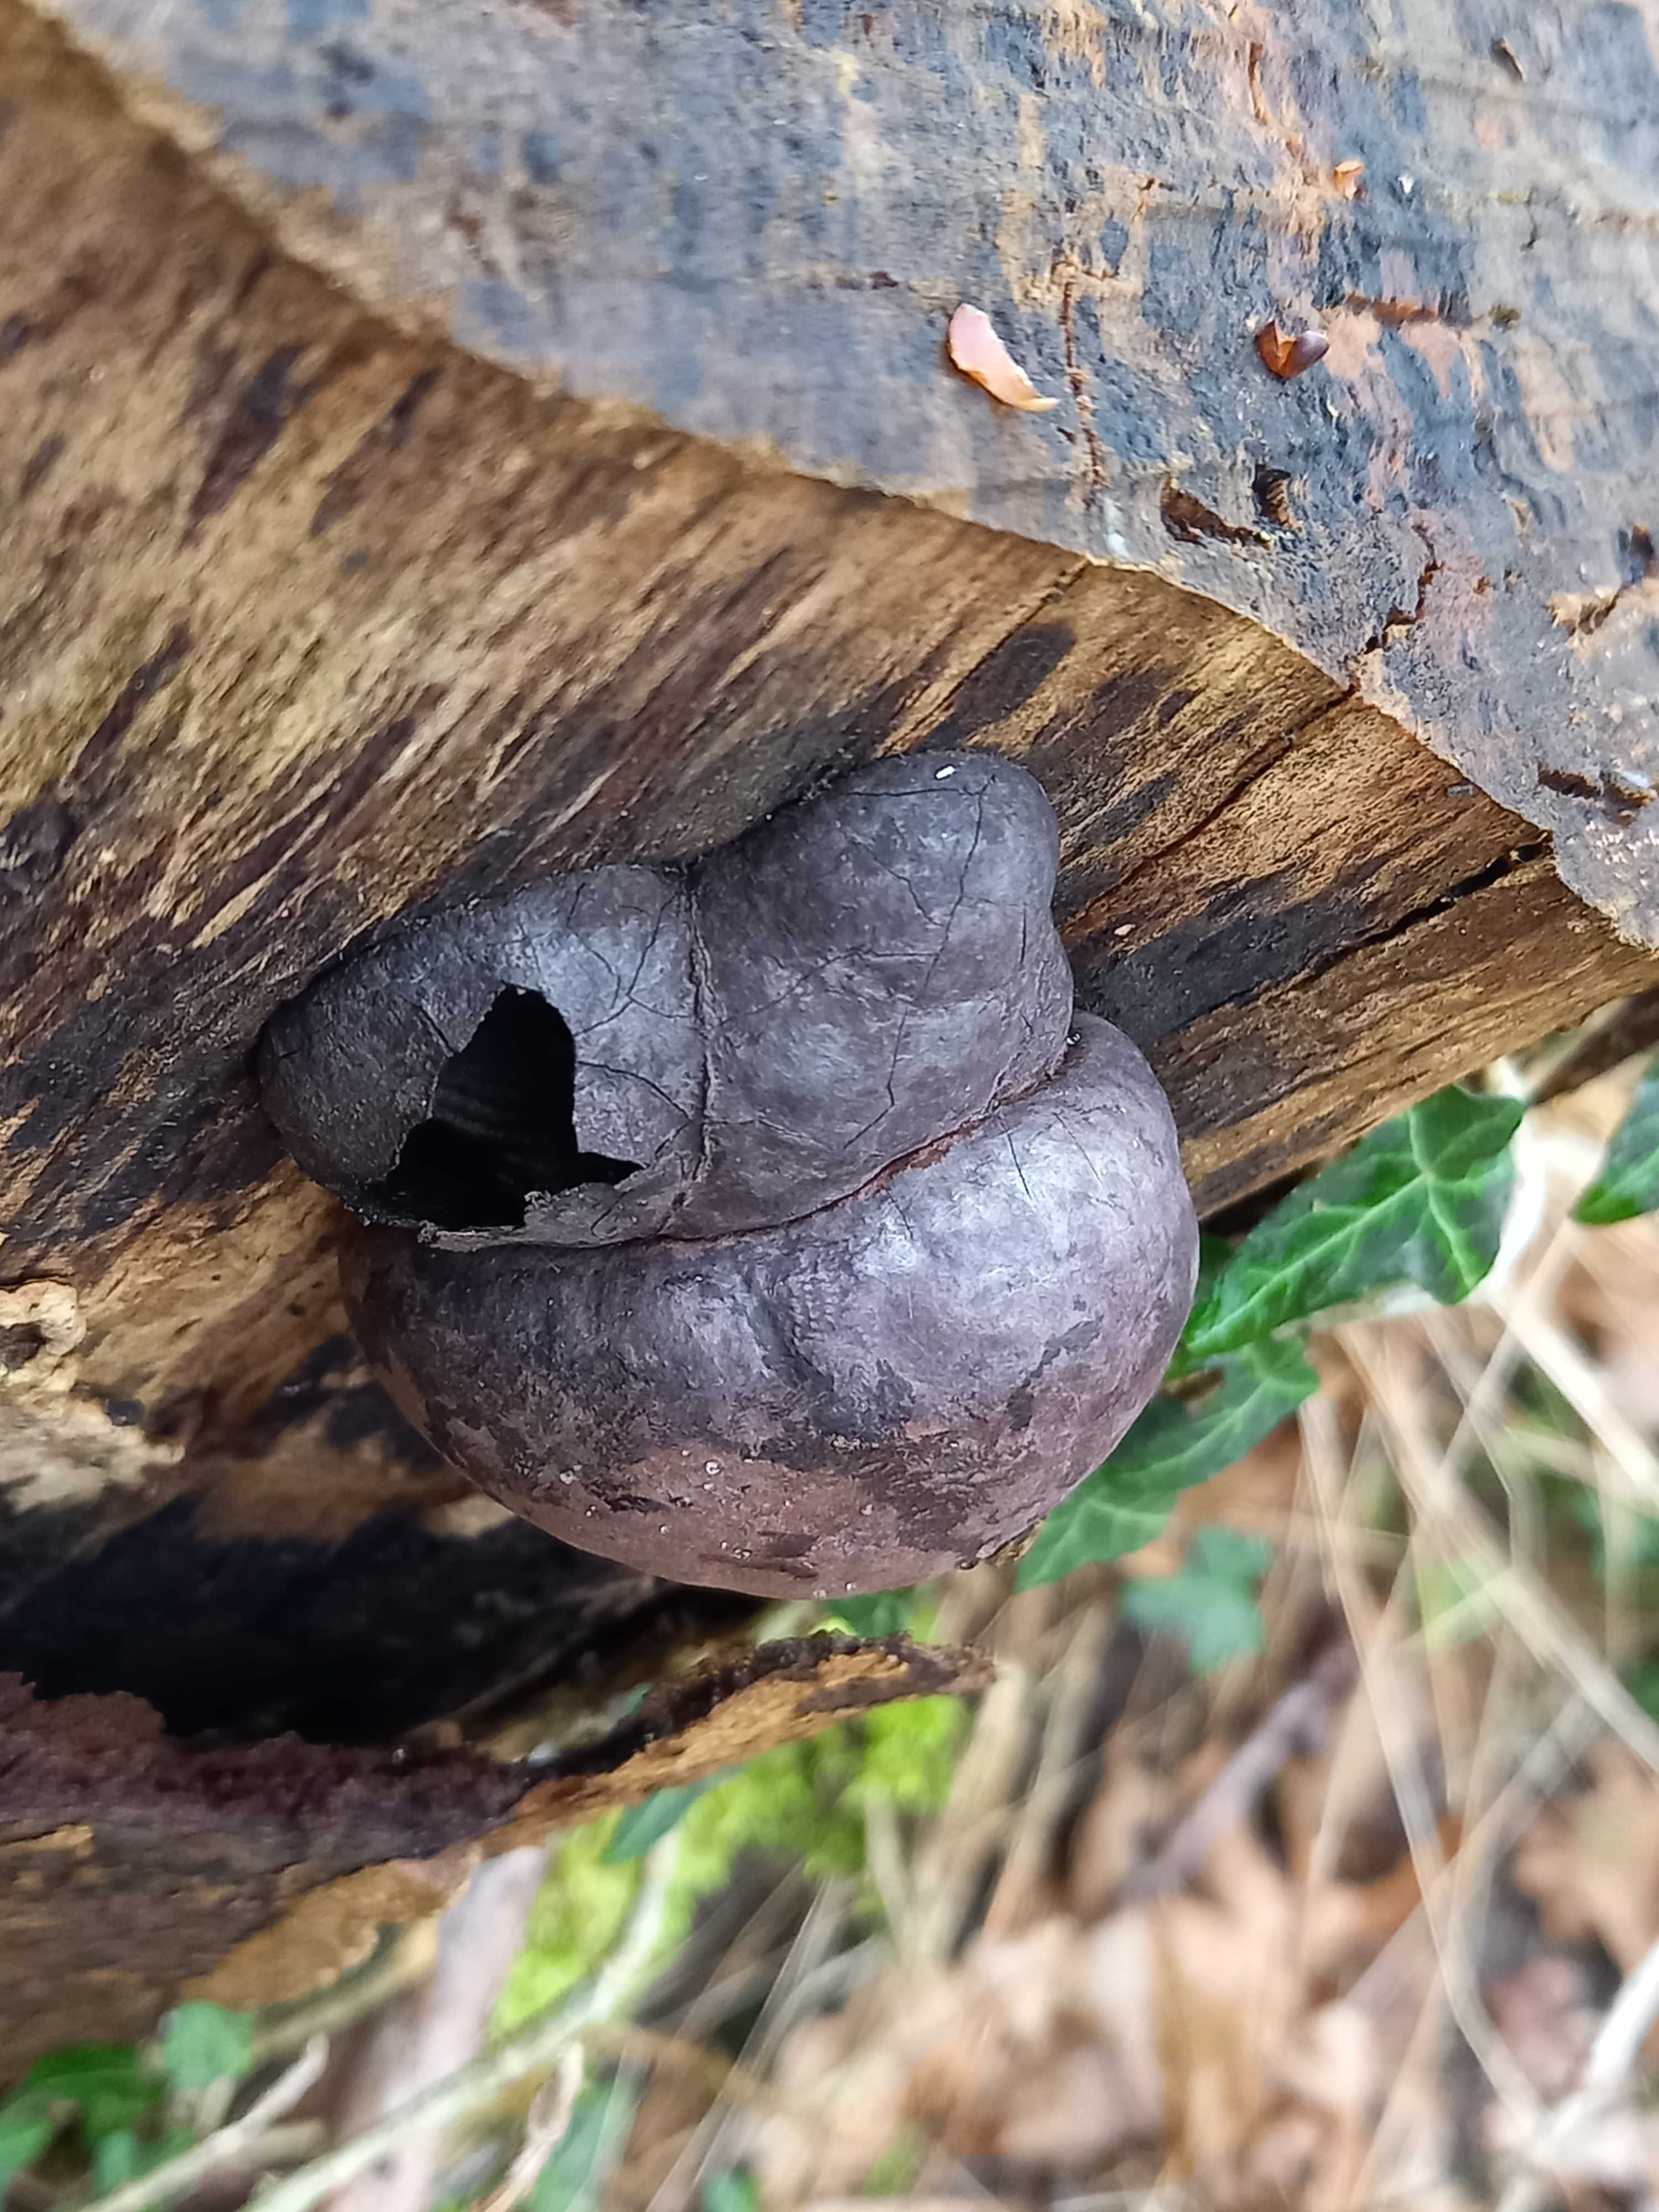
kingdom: Fungi
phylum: Ascomycota
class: Sordariomycetes
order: Xylariales
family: Hypoxylaceae
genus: Daldinia
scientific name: Daldinia concentrica
